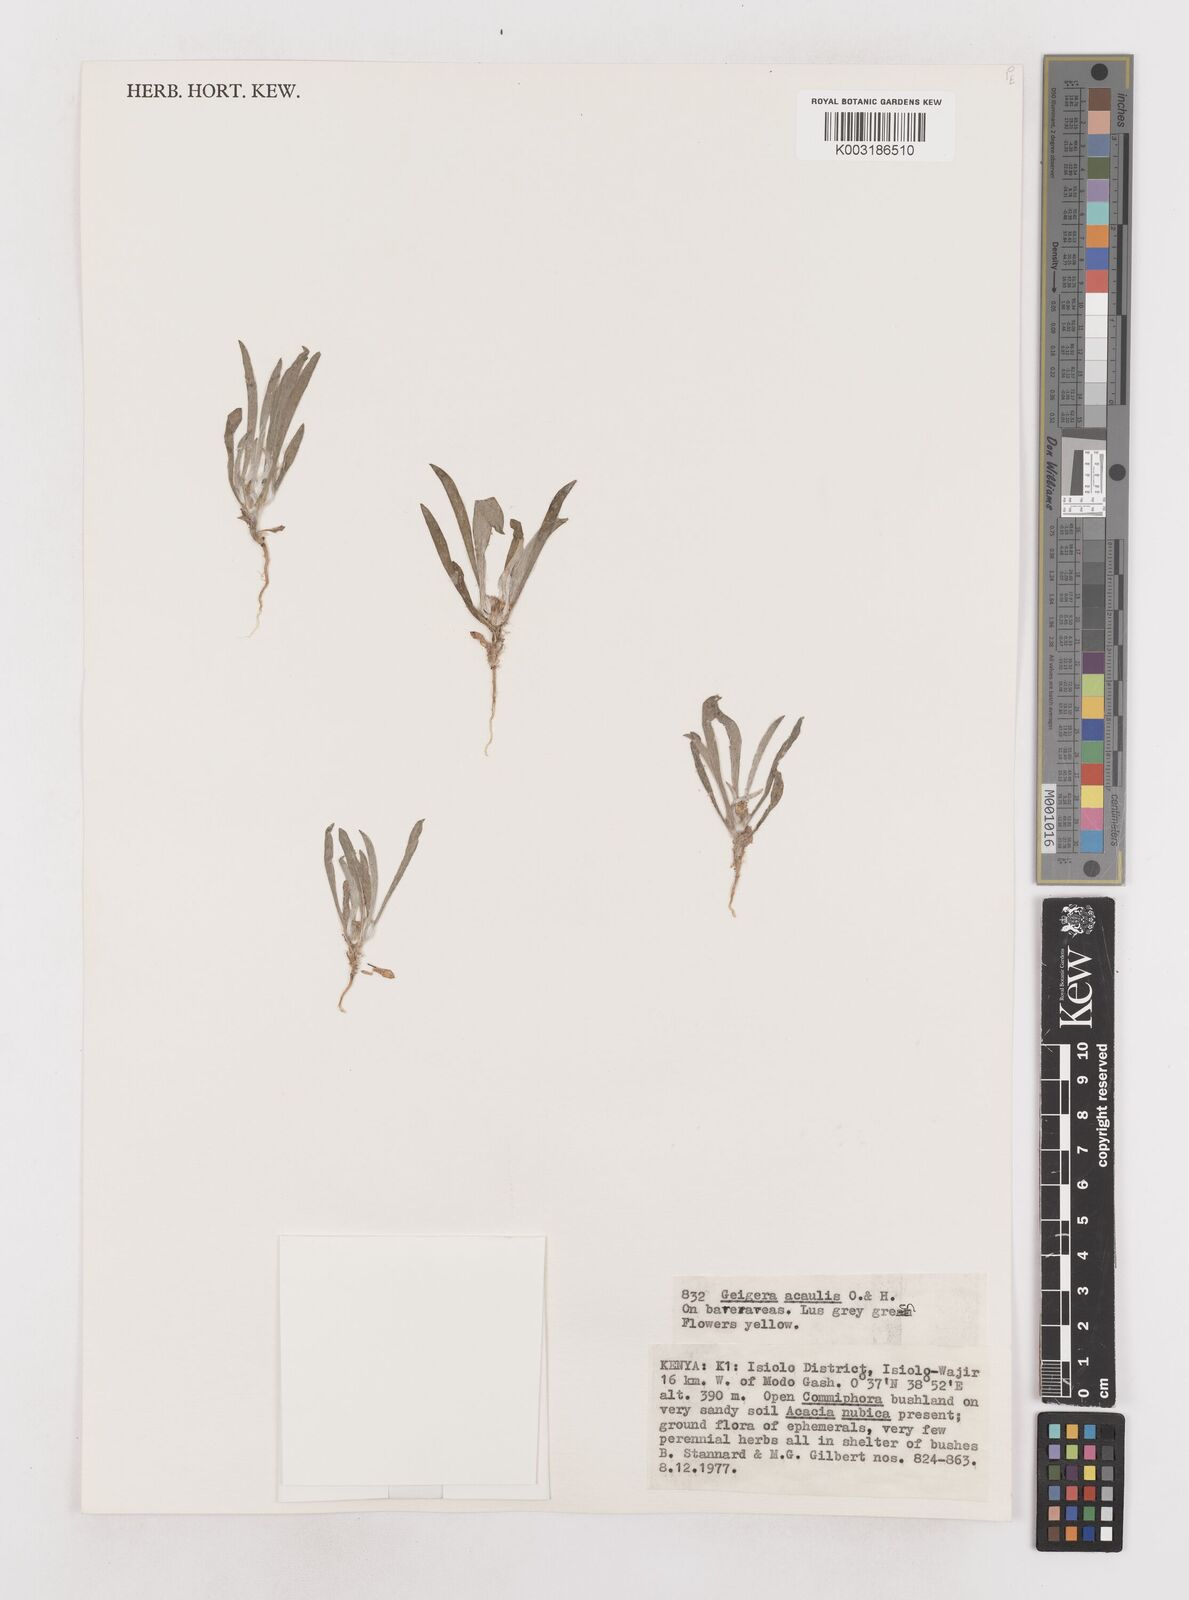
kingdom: Plantae
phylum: Tracheophyta
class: Magnoliopsida
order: Asterales
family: Asteraceae
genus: Geigeria
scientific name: Geigeria acaulis
